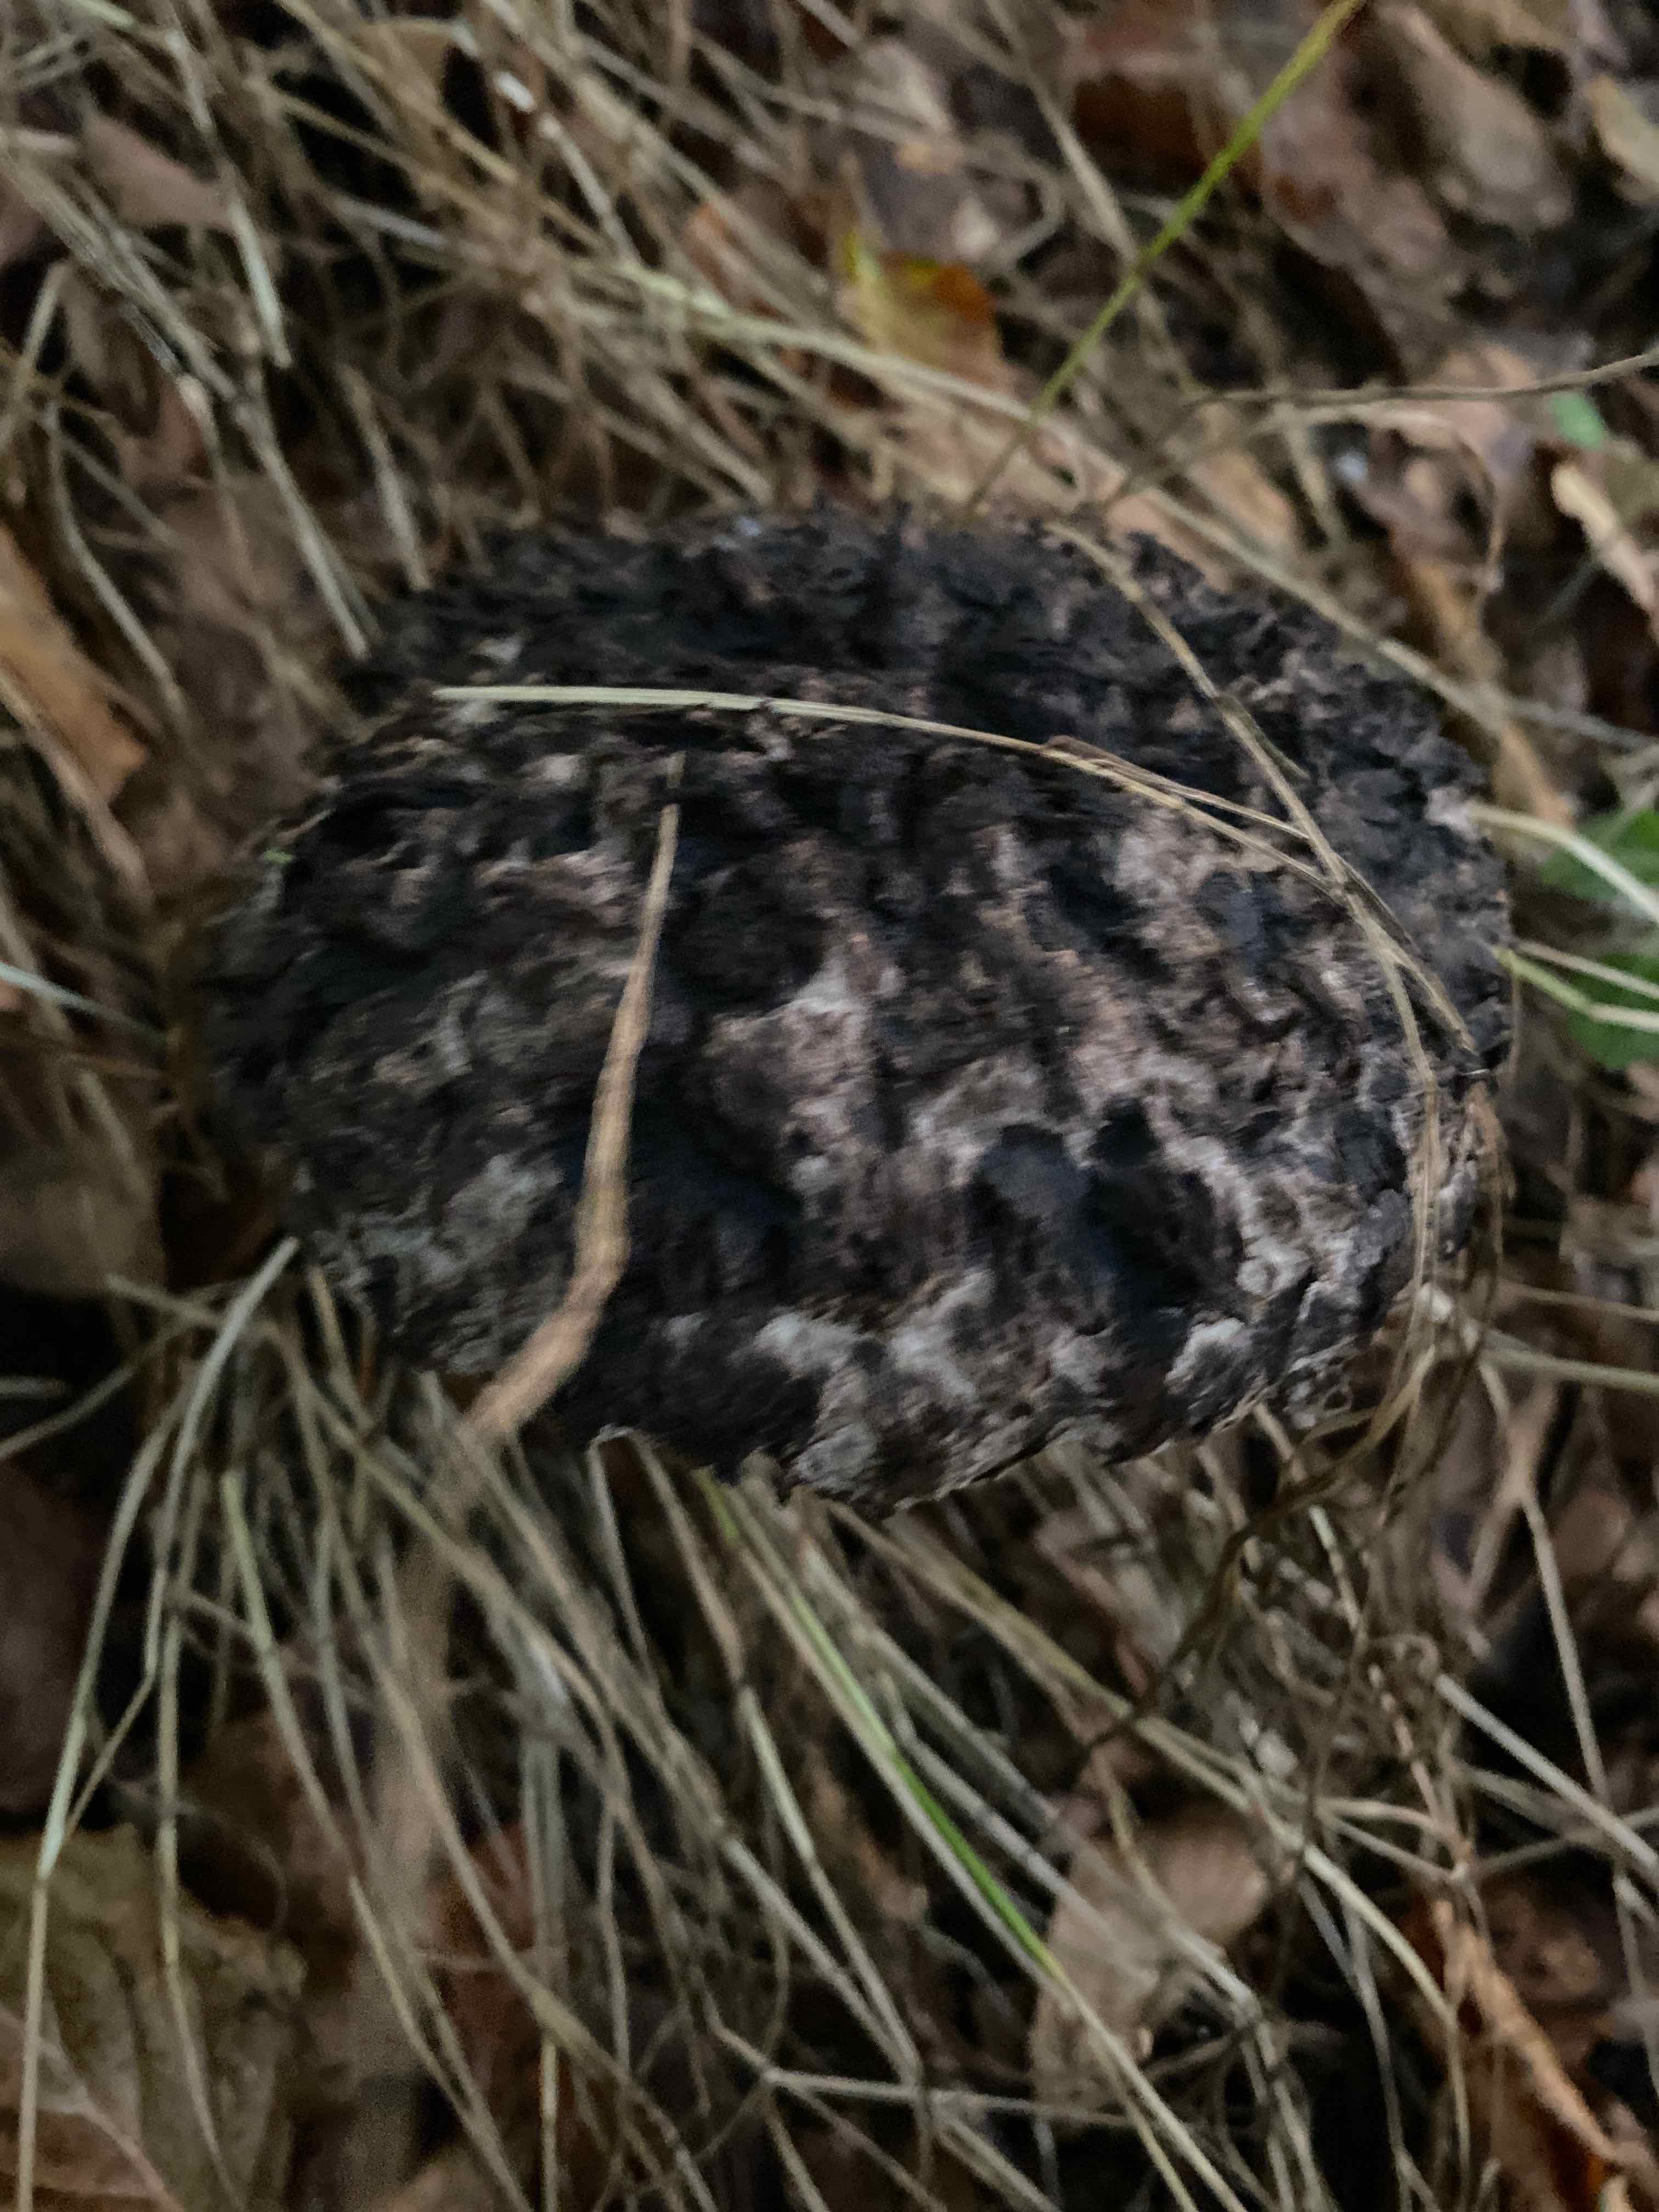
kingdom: Fungi
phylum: Basidiomycota
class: Agaricomycetes
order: Boletales
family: Boletaceae
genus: Strobilomyces
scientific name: Strobilomyces strobilaceus
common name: koglerørhat
